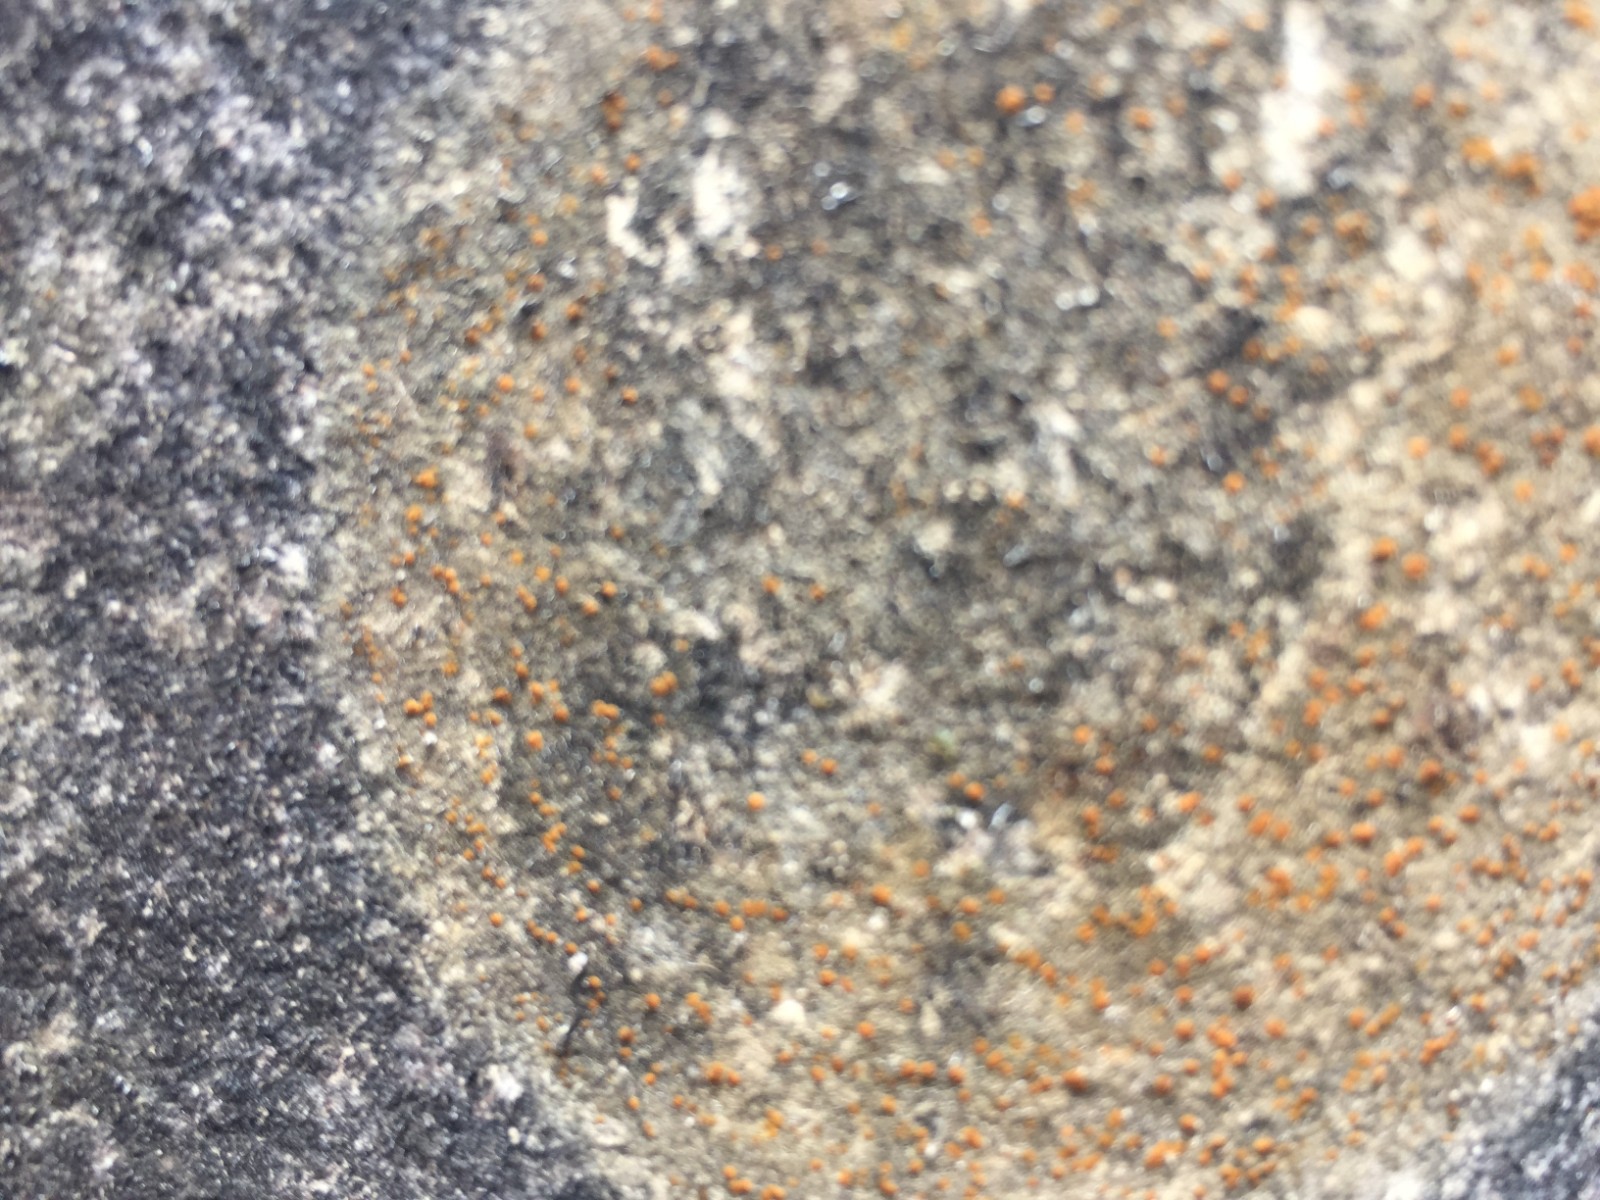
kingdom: Fungi
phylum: Ascomycota
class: Lecanoromycetes
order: Lecanorales
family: Psoraceae
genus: Protoblastenia
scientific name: Protoblastenia rupestris
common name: kalk-gulskivelav
